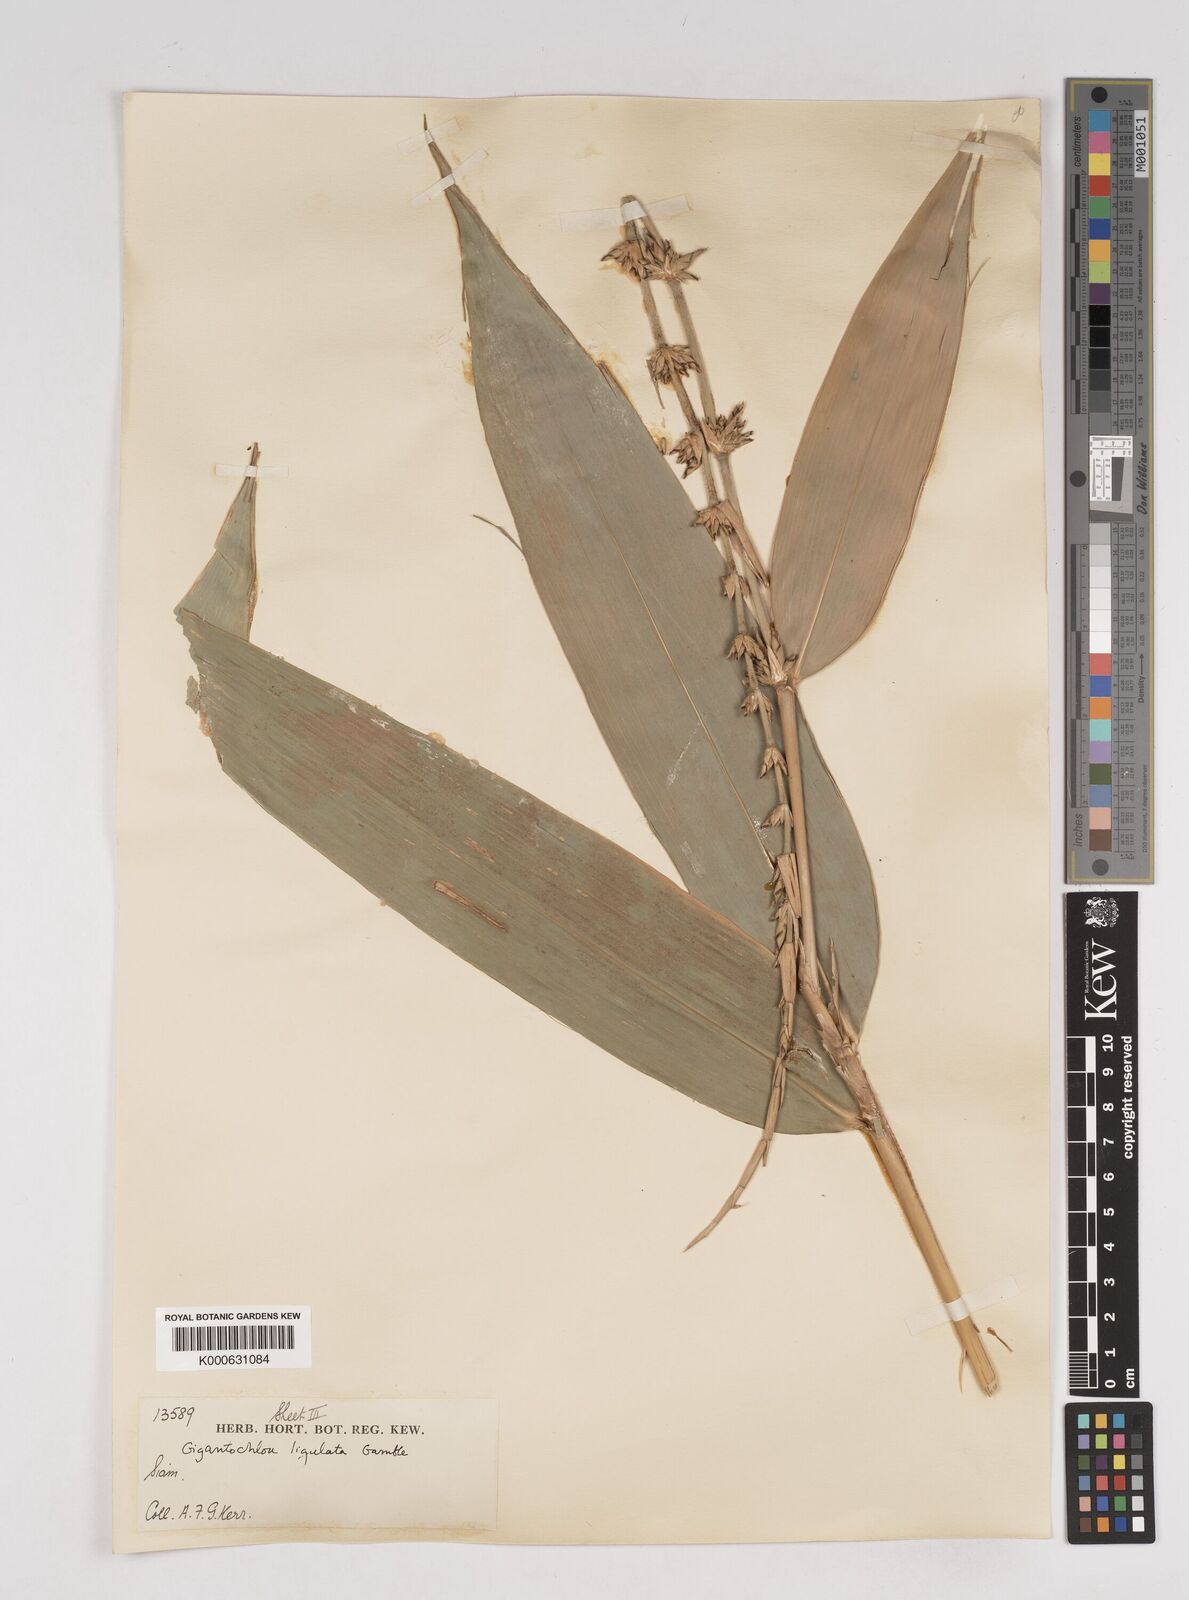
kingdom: Plantae
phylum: Tracheophyta
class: Liliopsida
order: Poales
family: Poaceae
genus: Gigantochloa
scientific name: Gigantochloa ligulata
